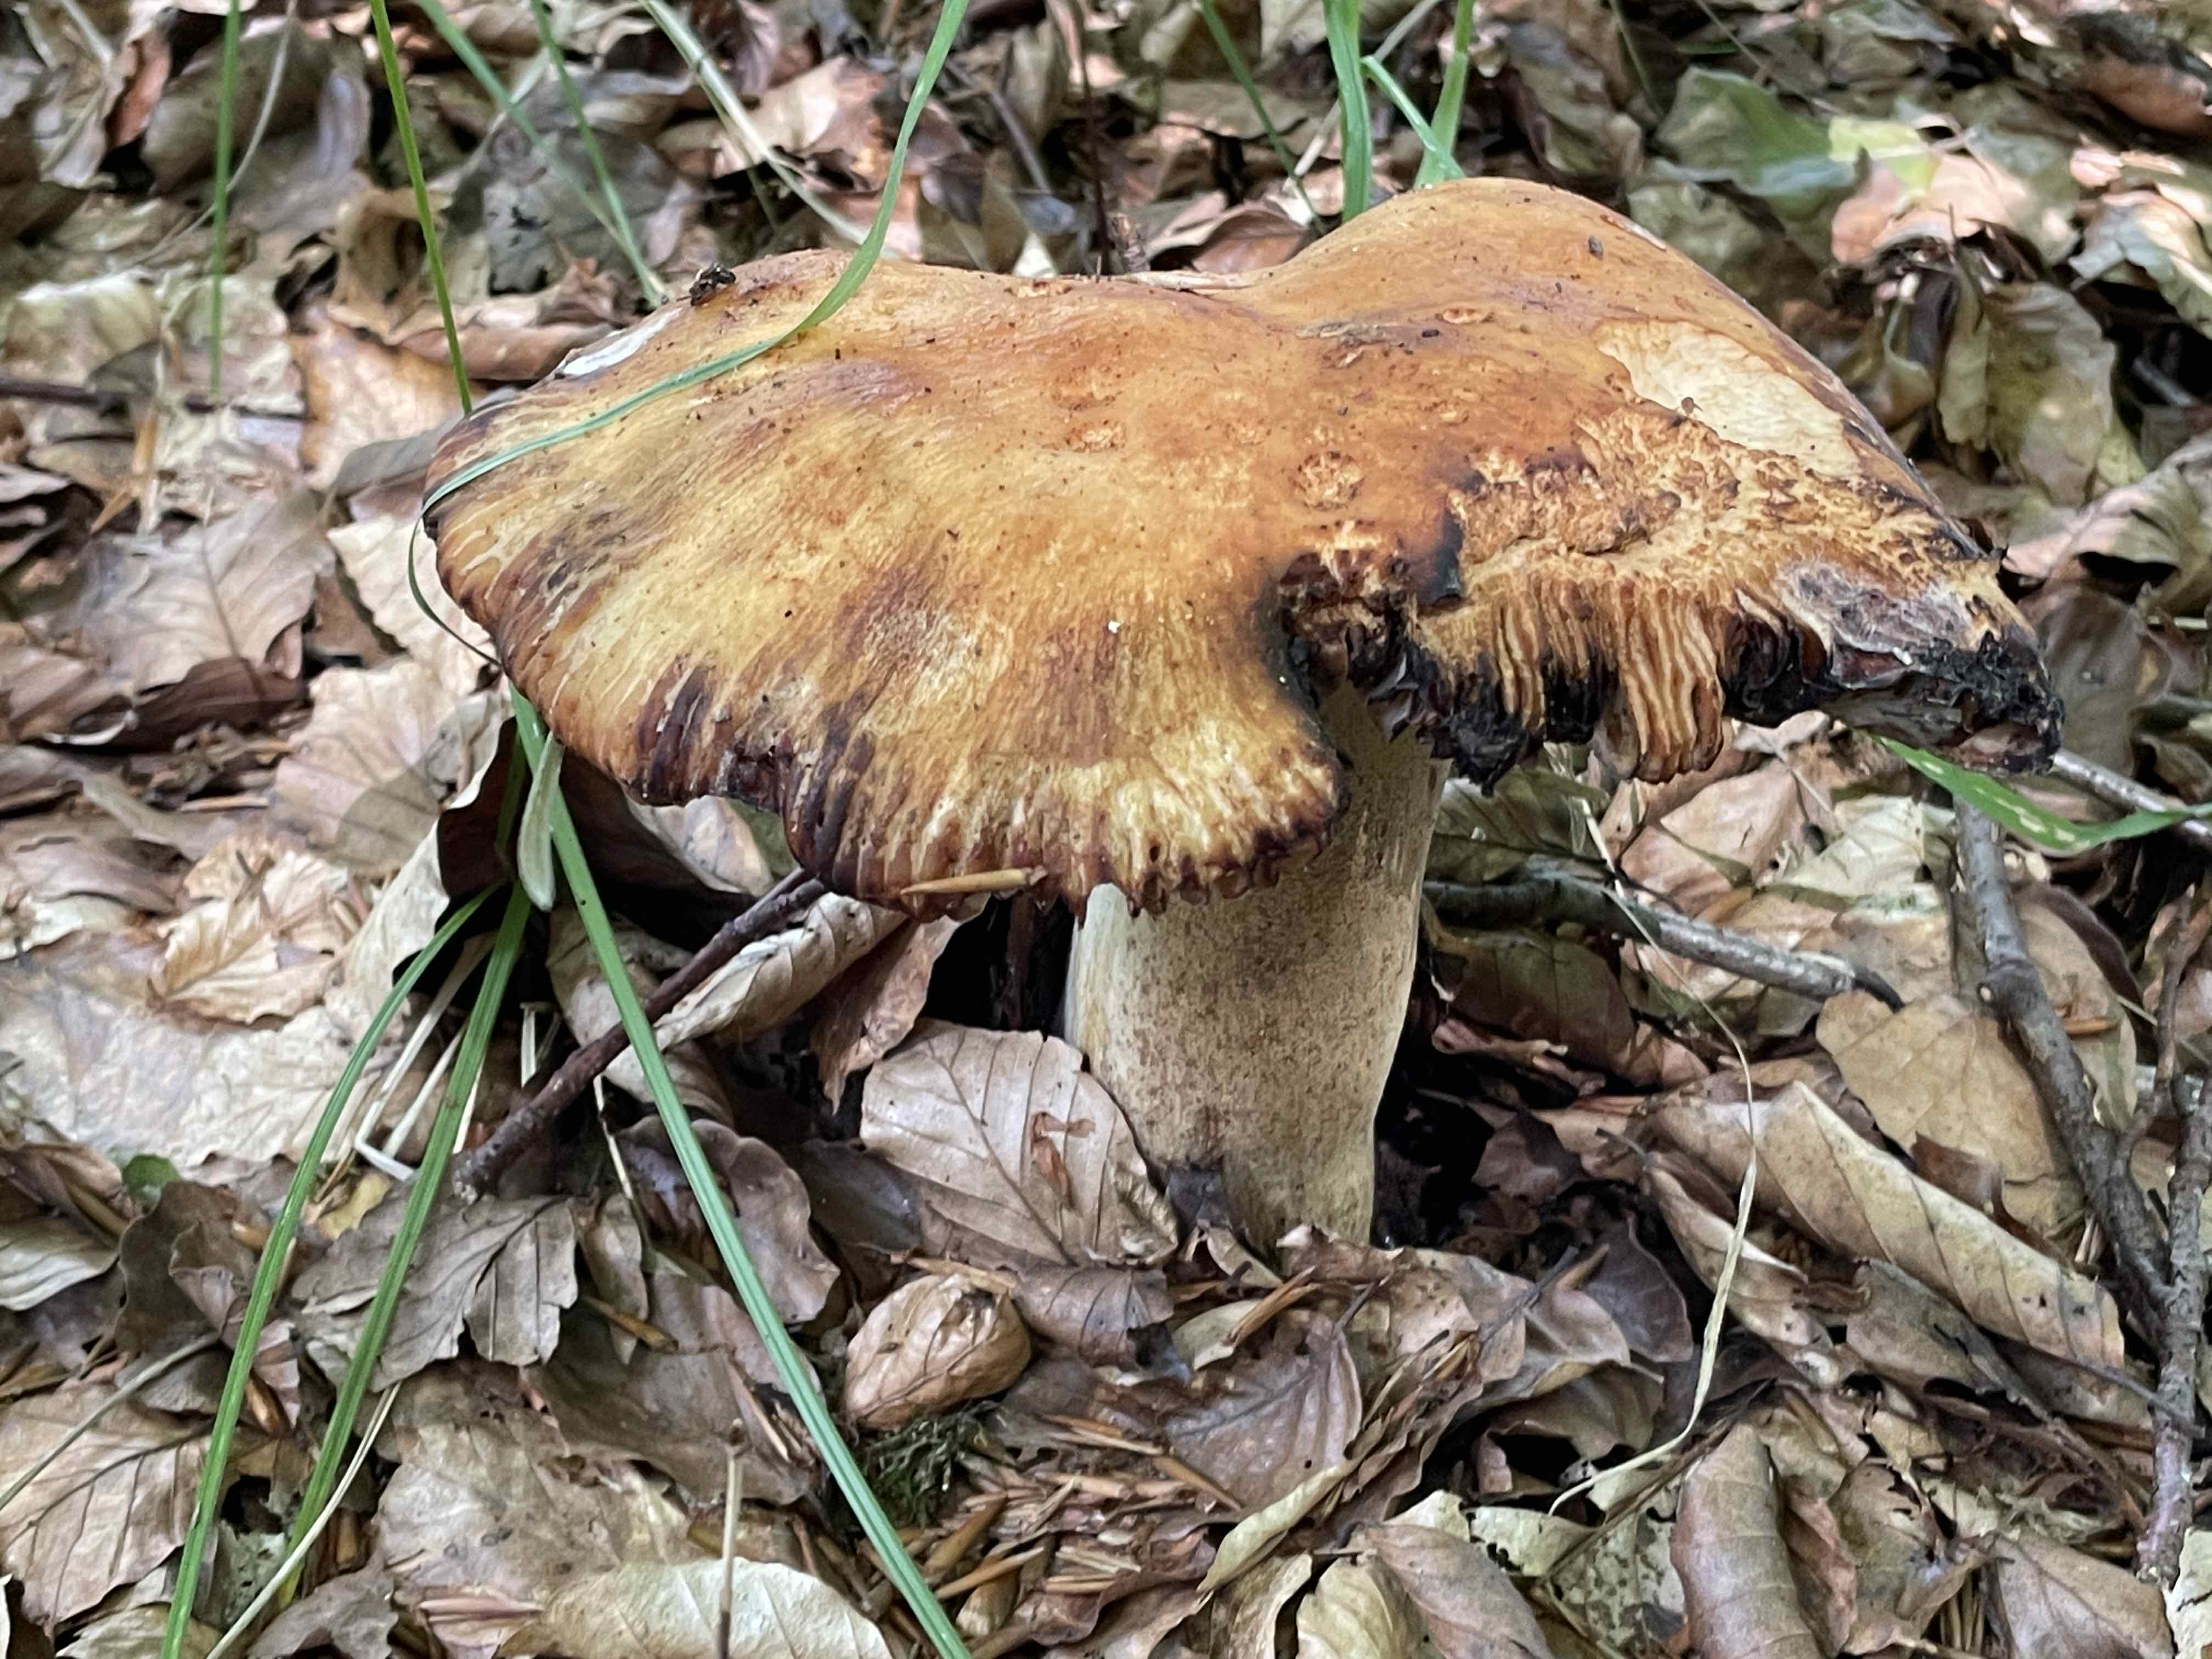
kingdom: Fungi
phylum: Basidiomycota
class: Agaricomycetes
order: Russulales
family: Russulaceae
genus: Russula
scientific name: Russula grata
